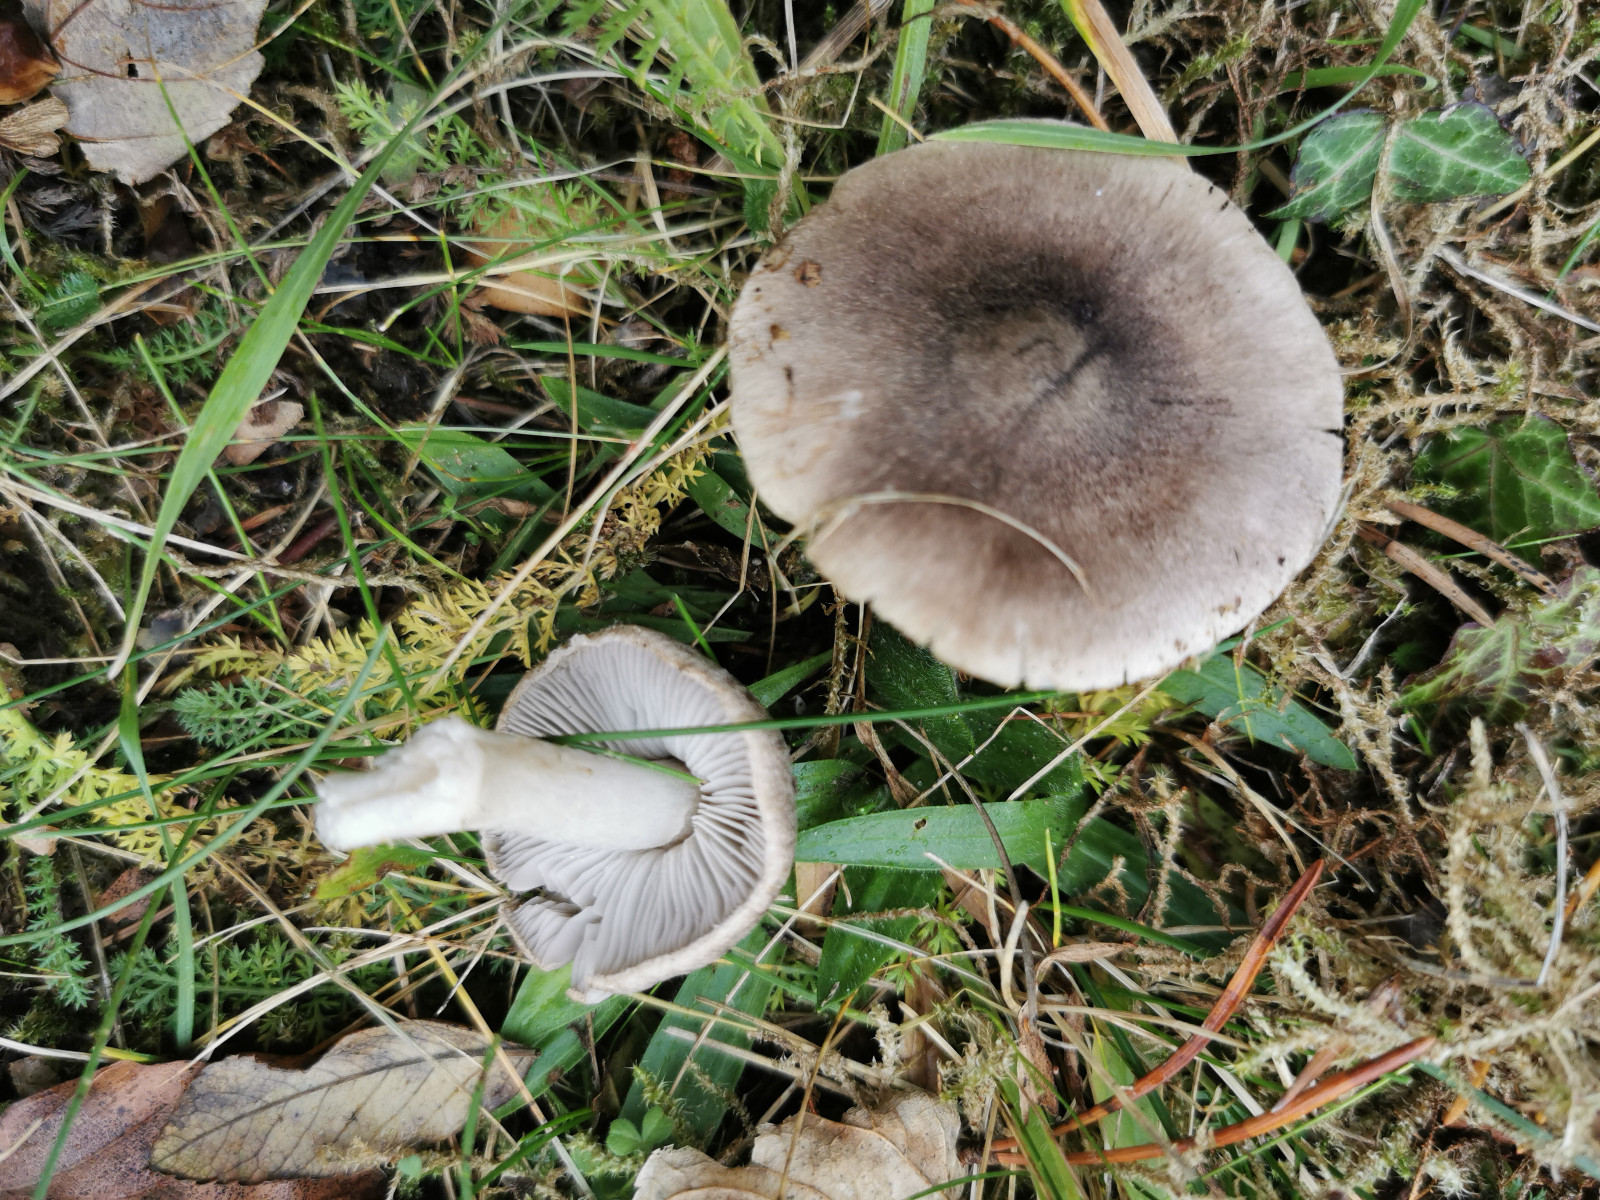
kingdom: Fungi
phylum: Basidiomycota
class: Agaricomycetes
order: Agaricales
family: Tricholomataceae
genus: Tricholoma
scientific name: Tricholoma terreum
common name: jordfarvet ridderhat
